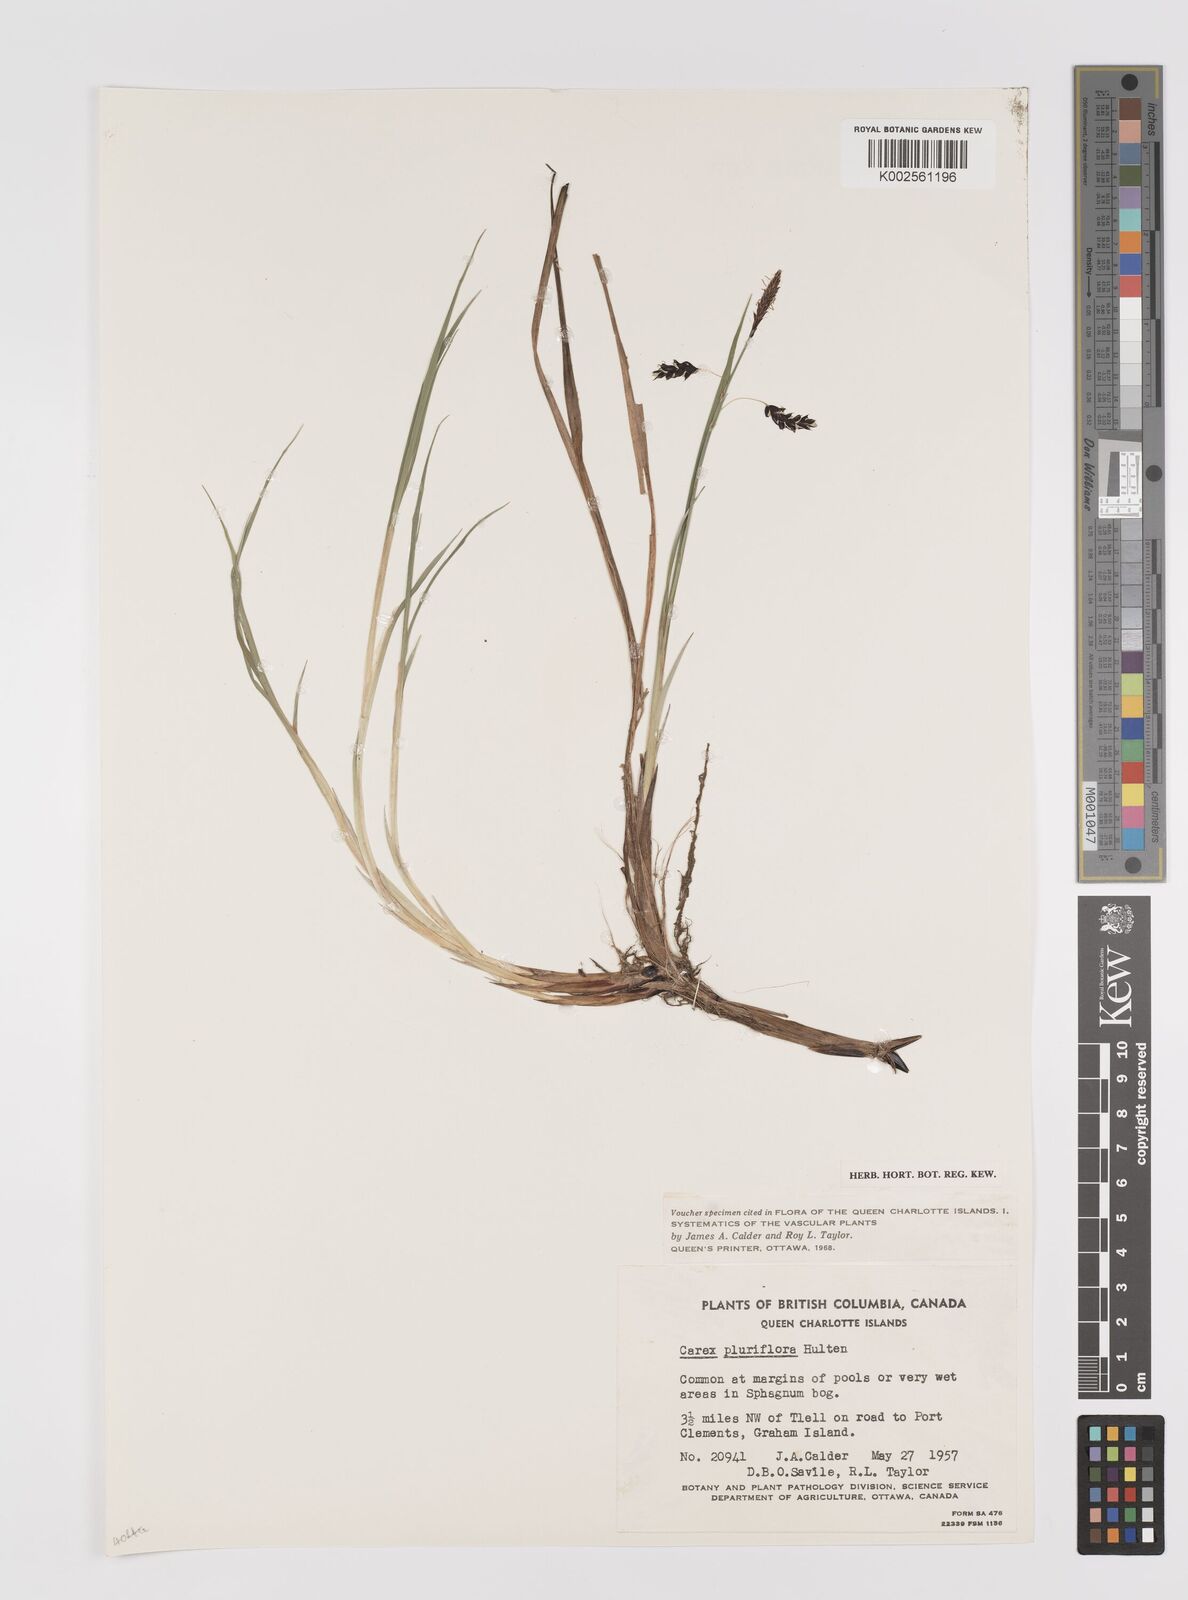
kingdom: Plantae
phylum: Tracheophyta
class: Liliopsida
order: Poales
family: Cyperaceae
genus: Carex
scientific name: Carex pluriflora
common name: Manyflower sedge
